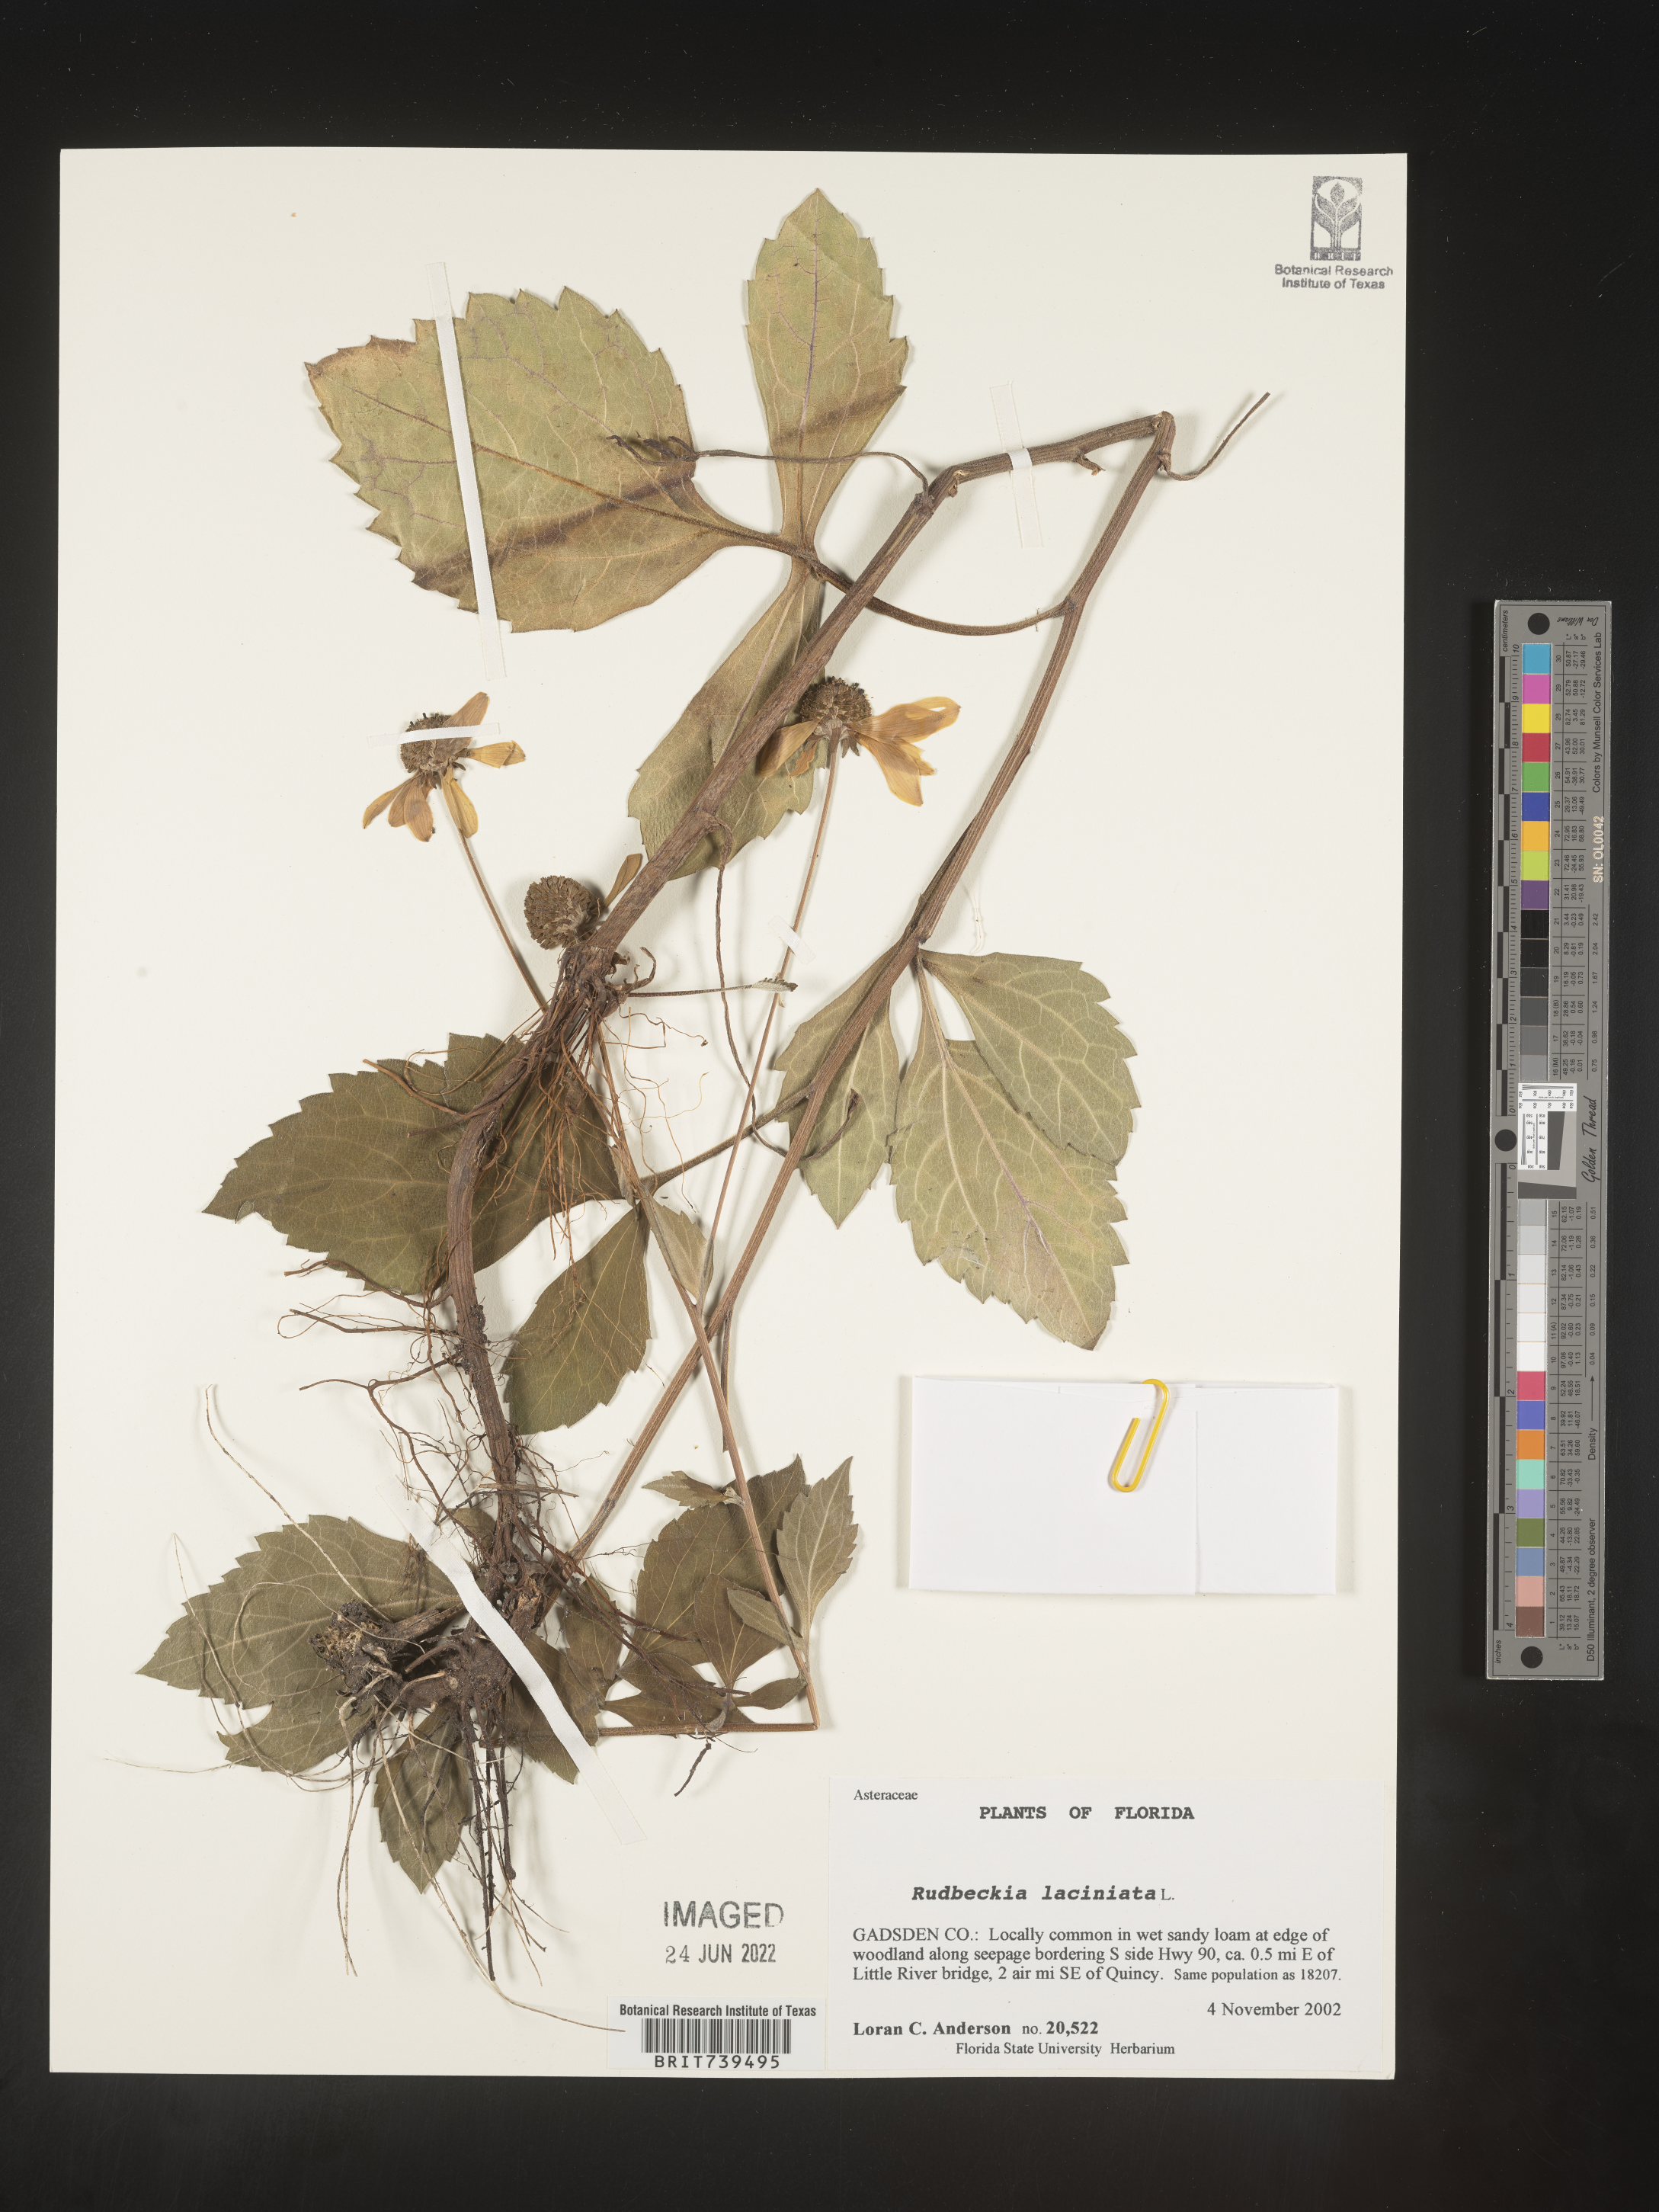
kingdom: Plantae
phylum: Tracheophyta
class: Magnoliopsida
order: Asterales
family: Asteraceae
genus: Rudbeckia
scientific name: Rudbeckia laciniata
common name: Coneflower
